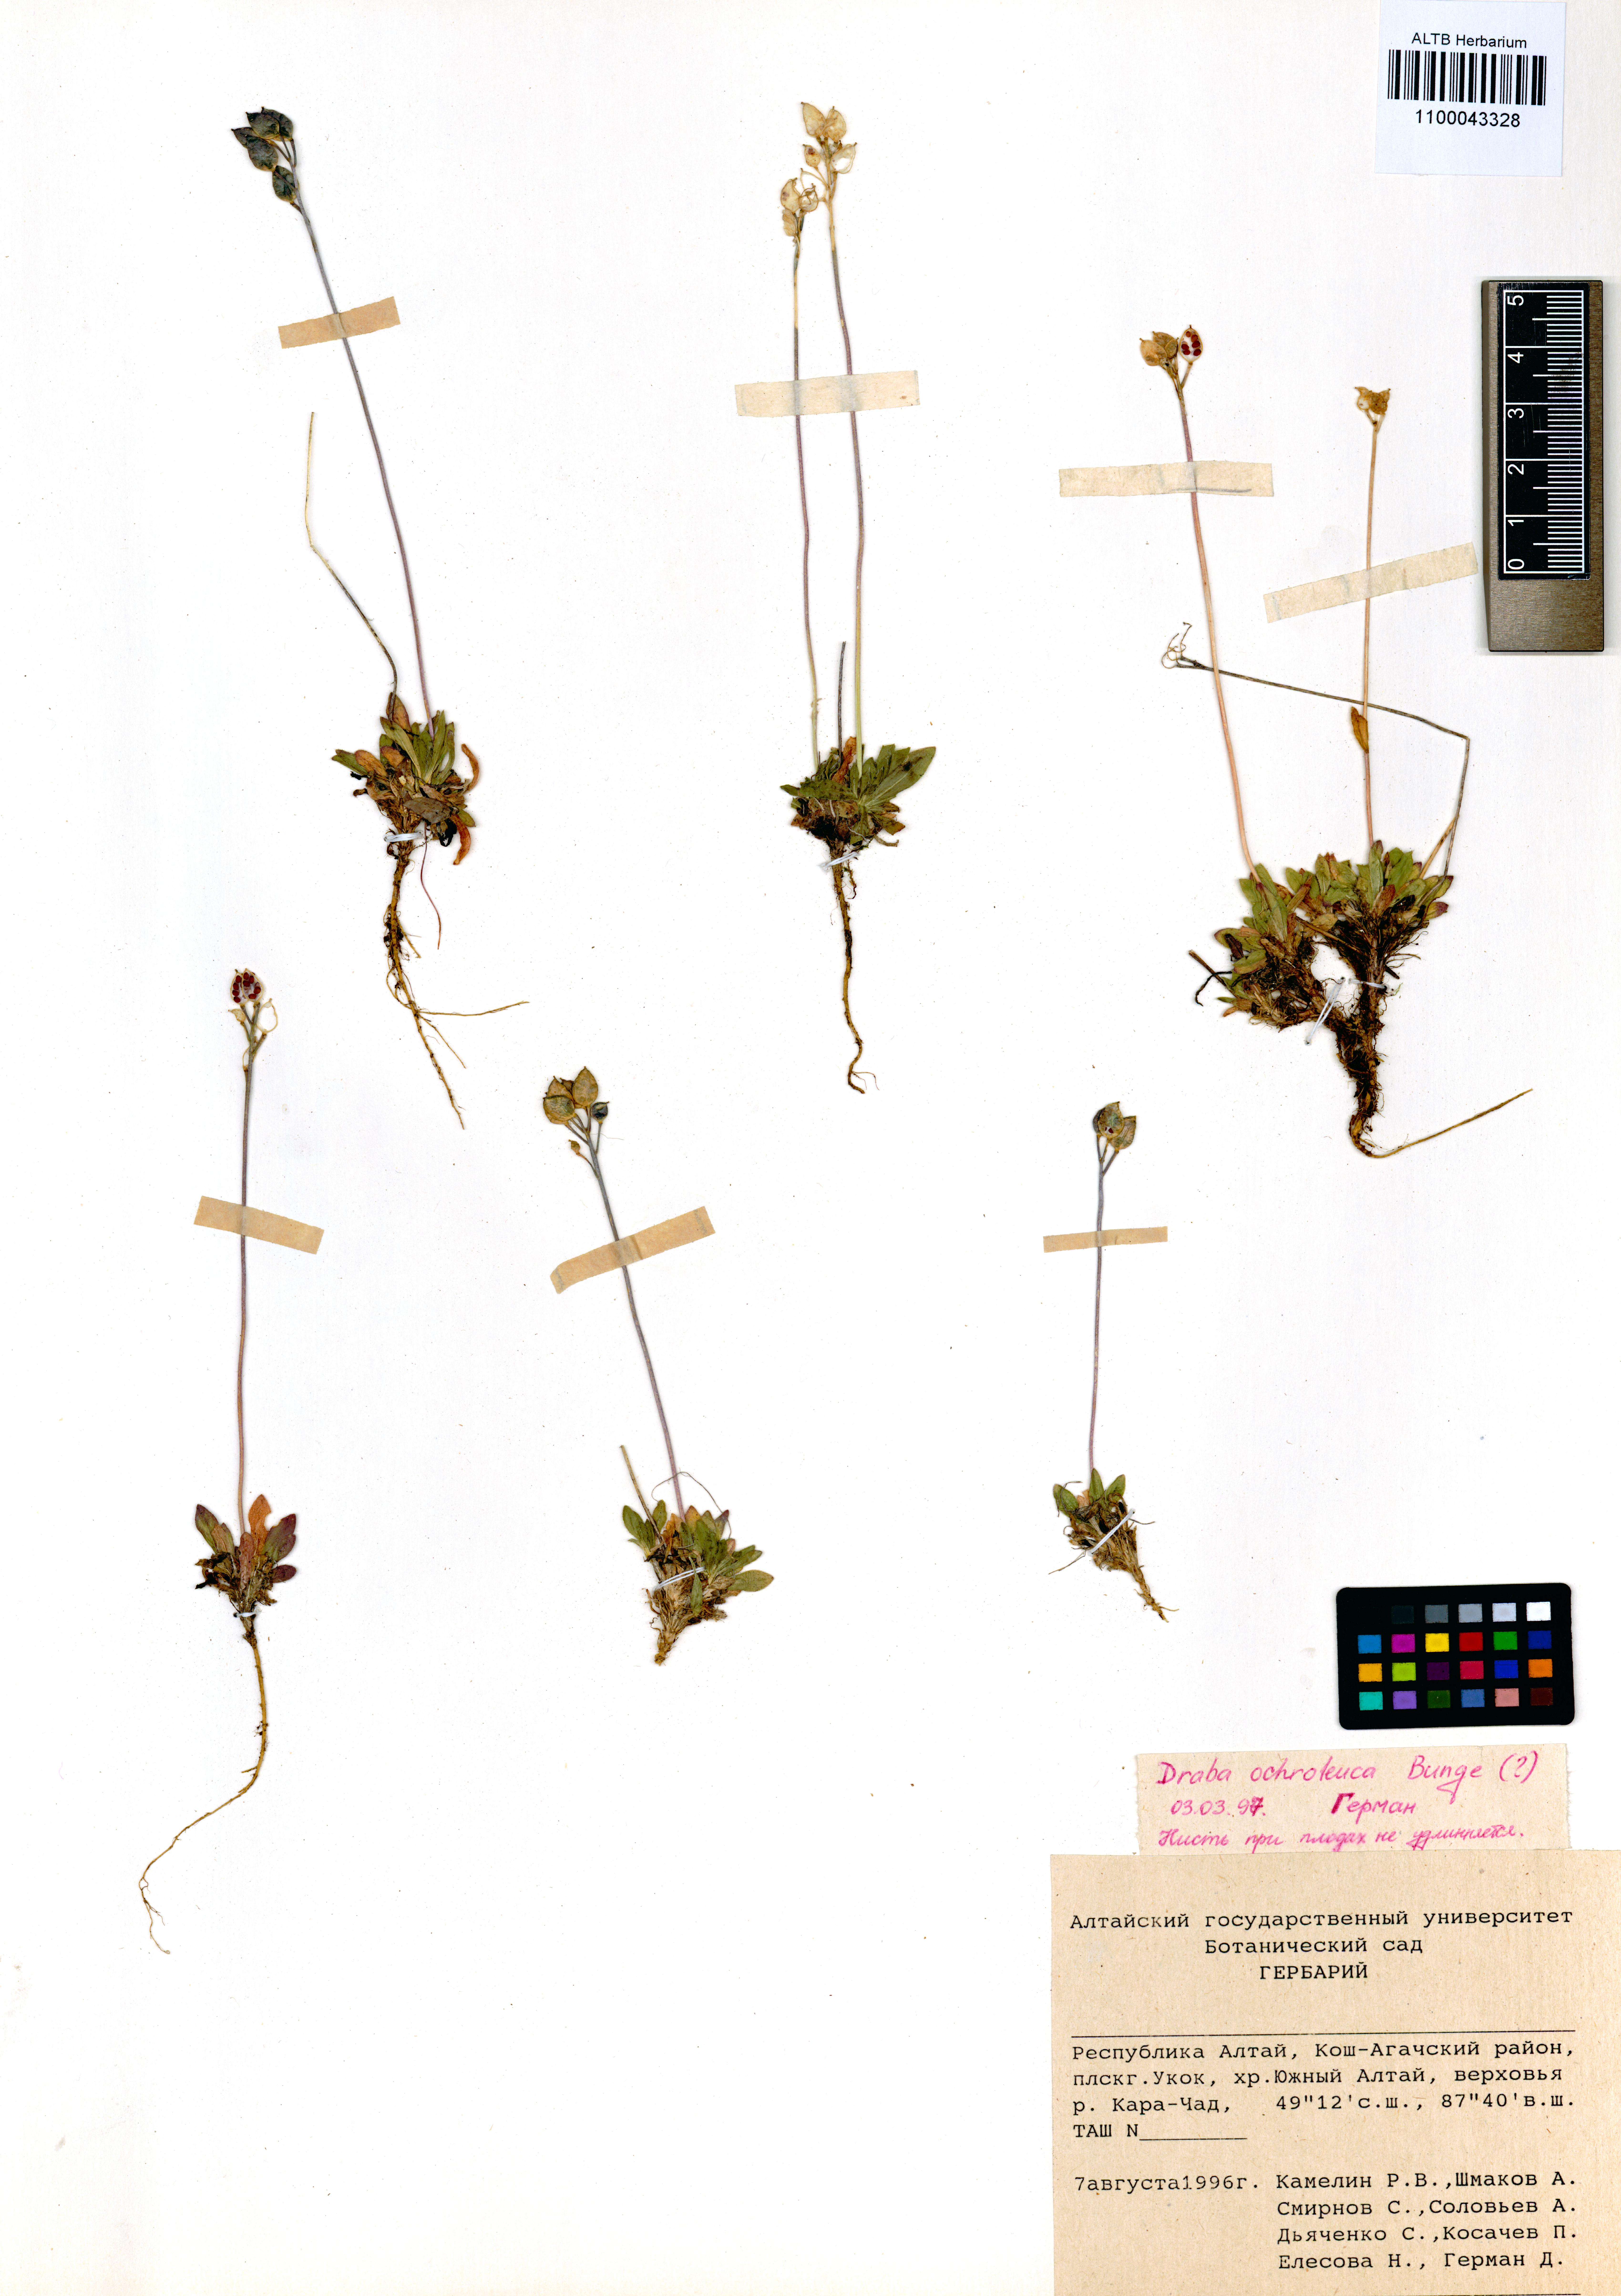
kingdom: Plantae
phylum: Tracheophyta
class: Magnoliopsida
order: Brassicales
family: Brassicaceae
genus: Draba
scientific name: Draba ochroleuca
